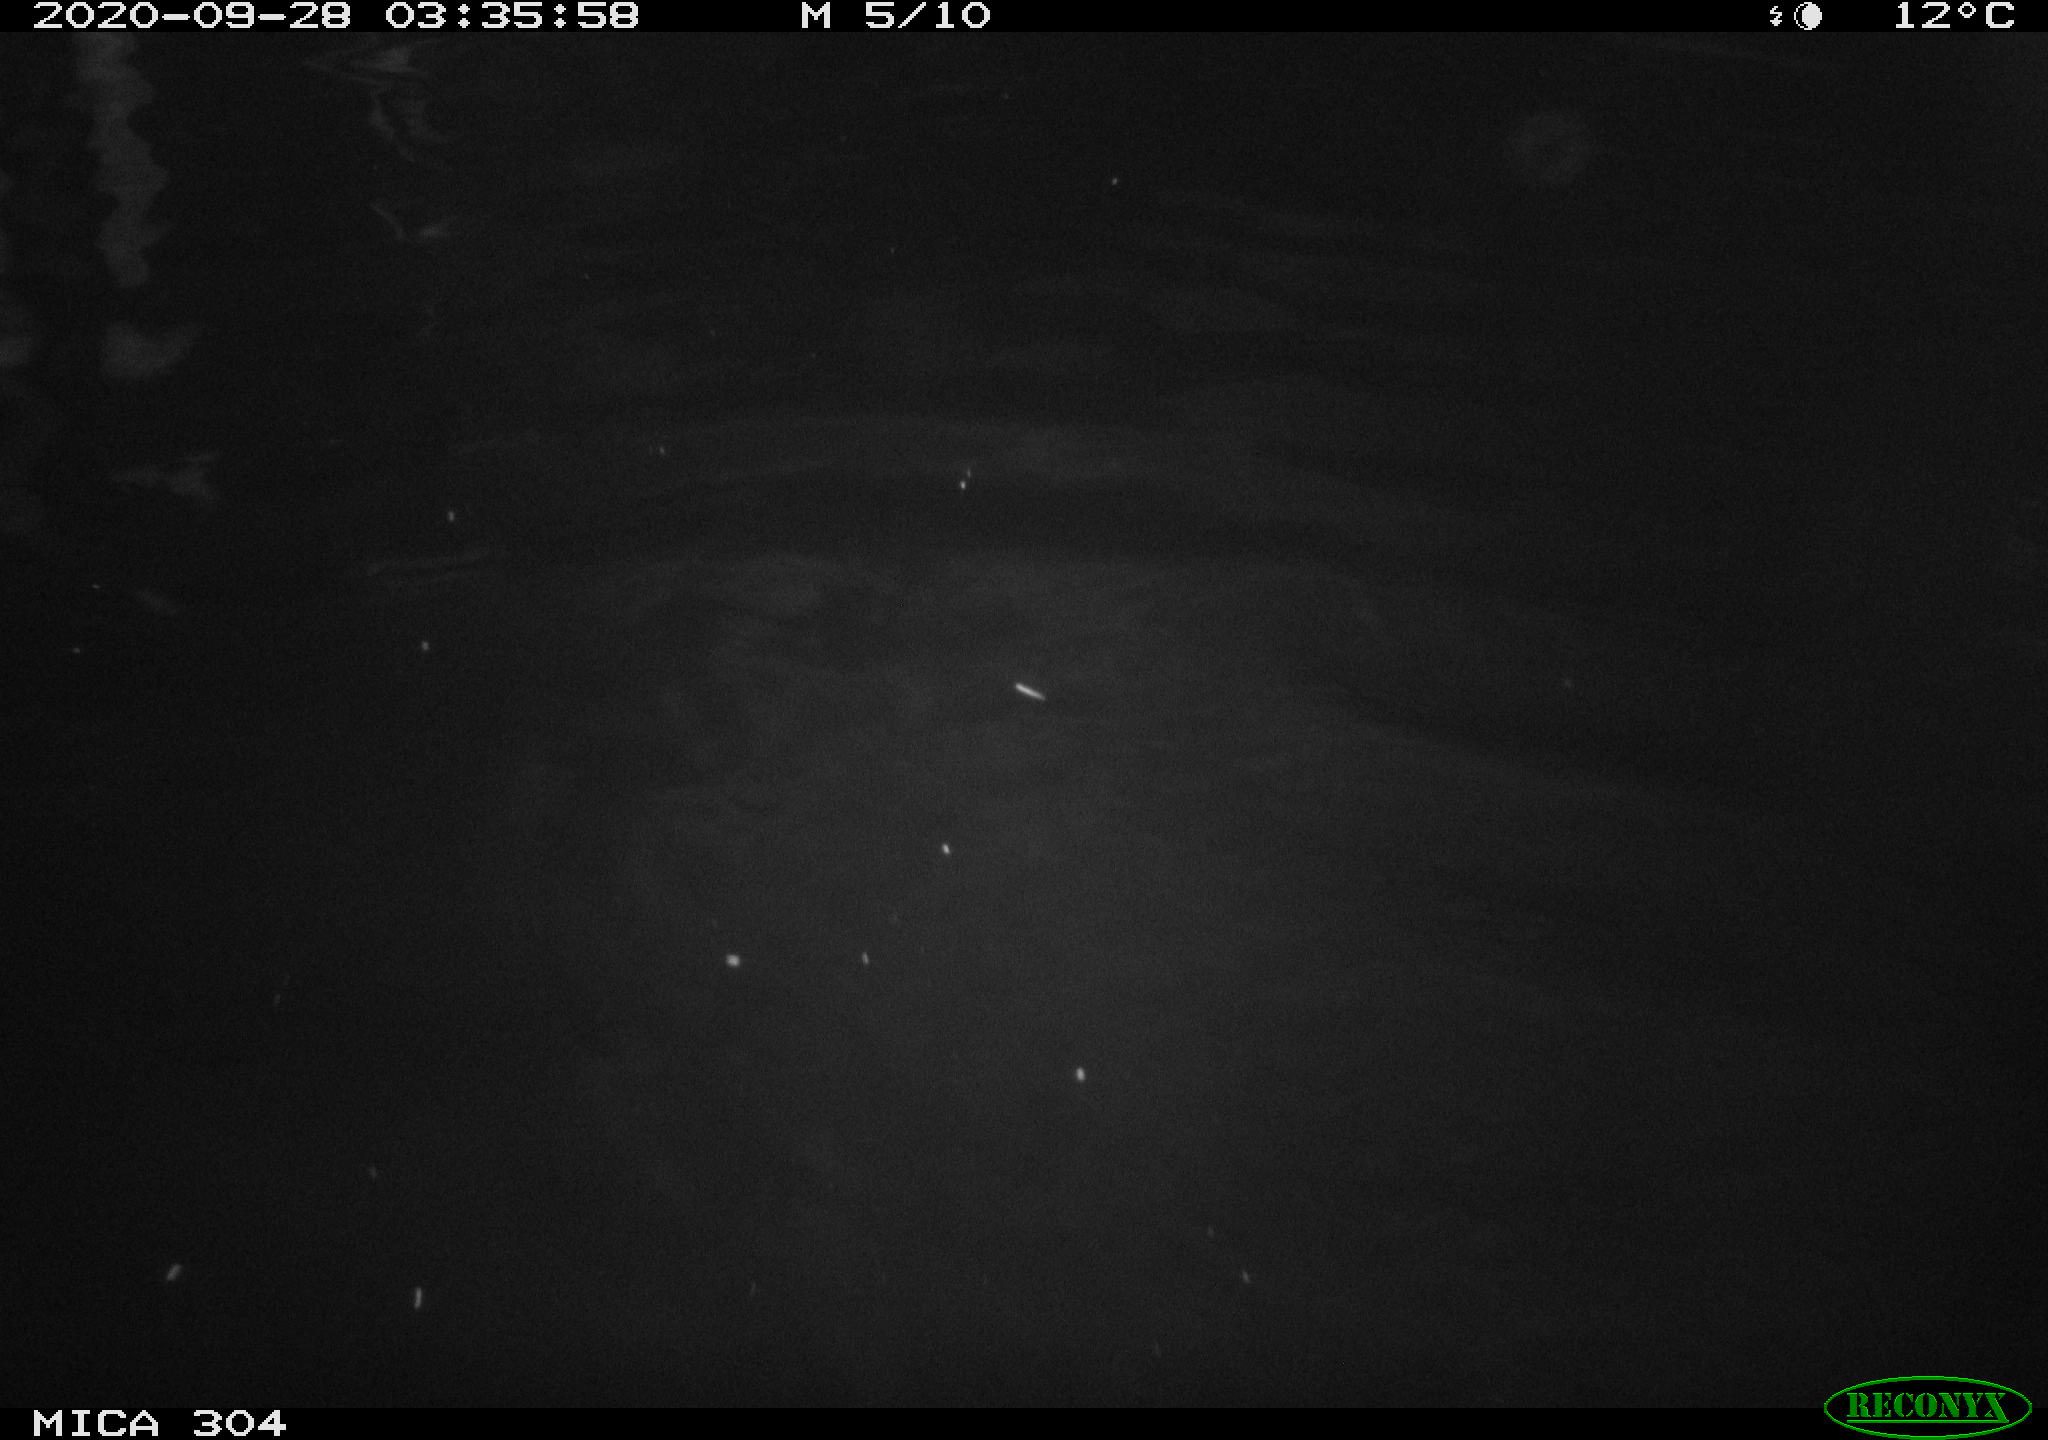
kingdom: Animalia
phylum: Chordata
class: Mammalia
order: Rodentia
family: Cricetidae
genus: Ondatra
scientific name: Ondatra zibethicus
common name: Muskrat
